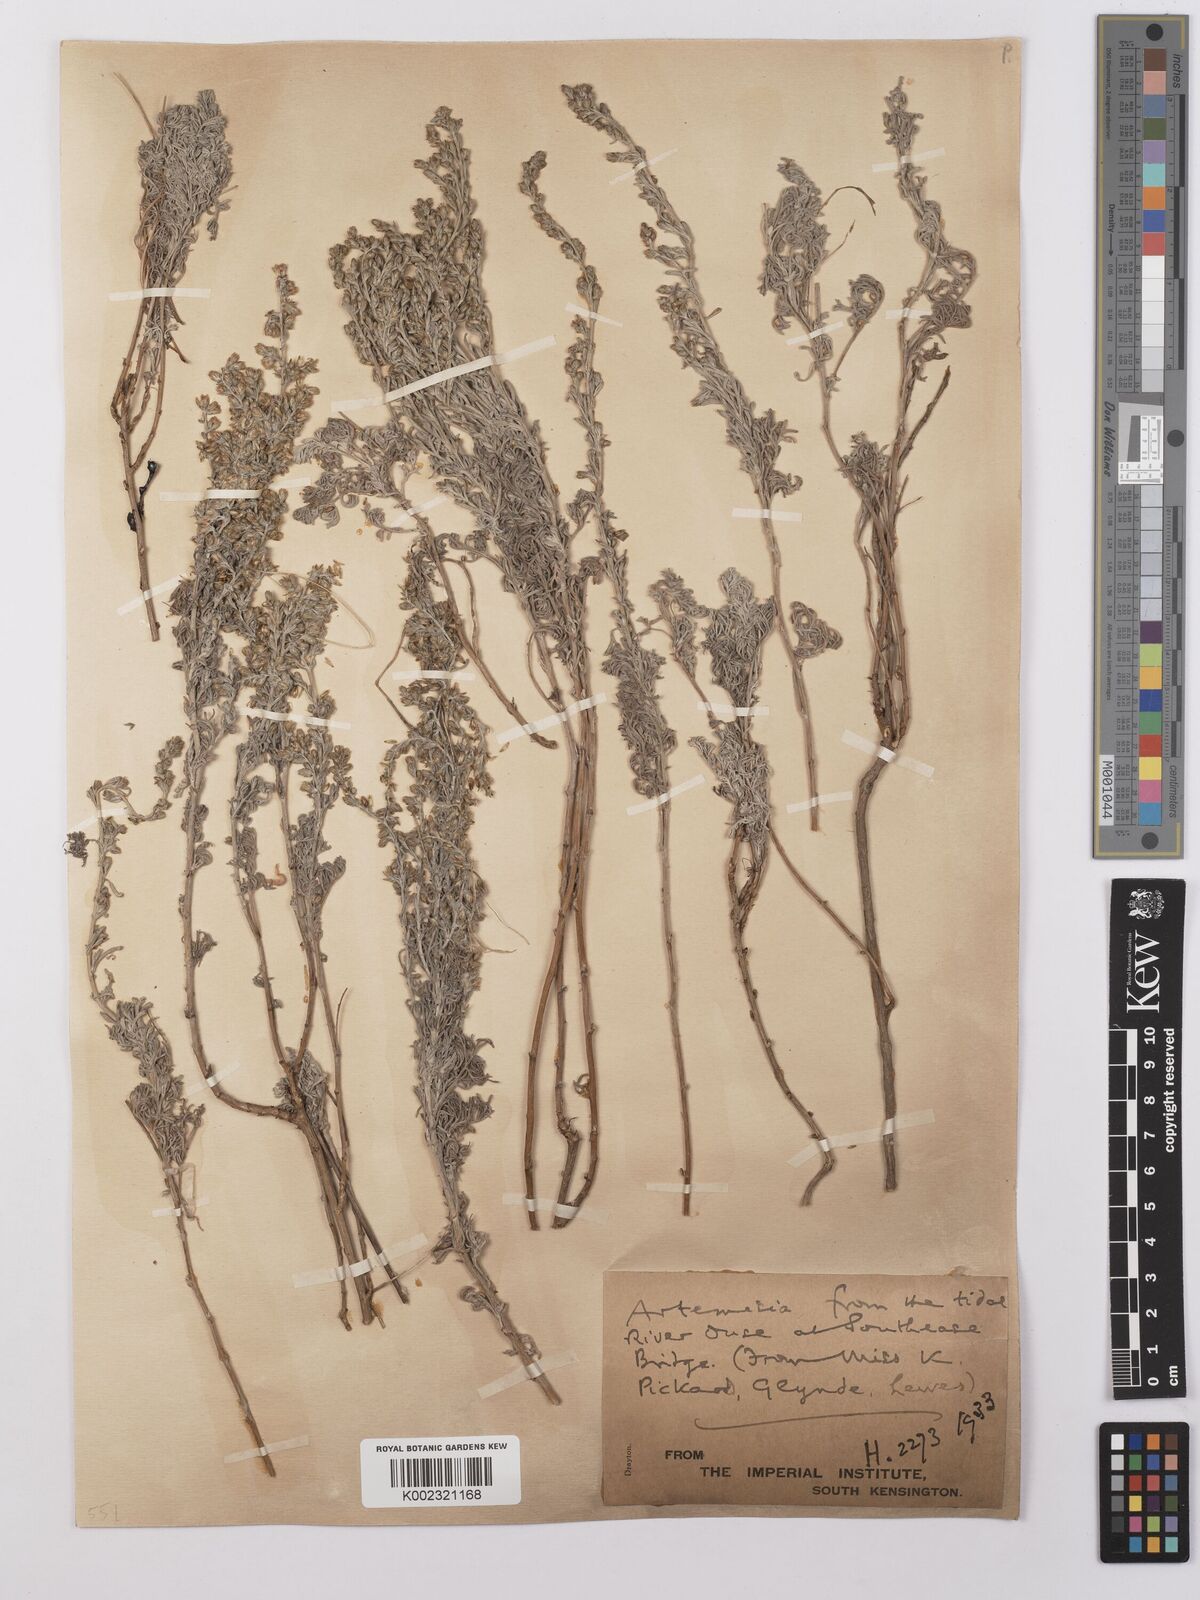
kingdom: Plantae
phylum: Tracheophyta
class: Magnoliopsida
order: Asterales
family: Asteraceae
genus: Artemisia
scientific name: Artemisia maritima
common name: Wormseed
